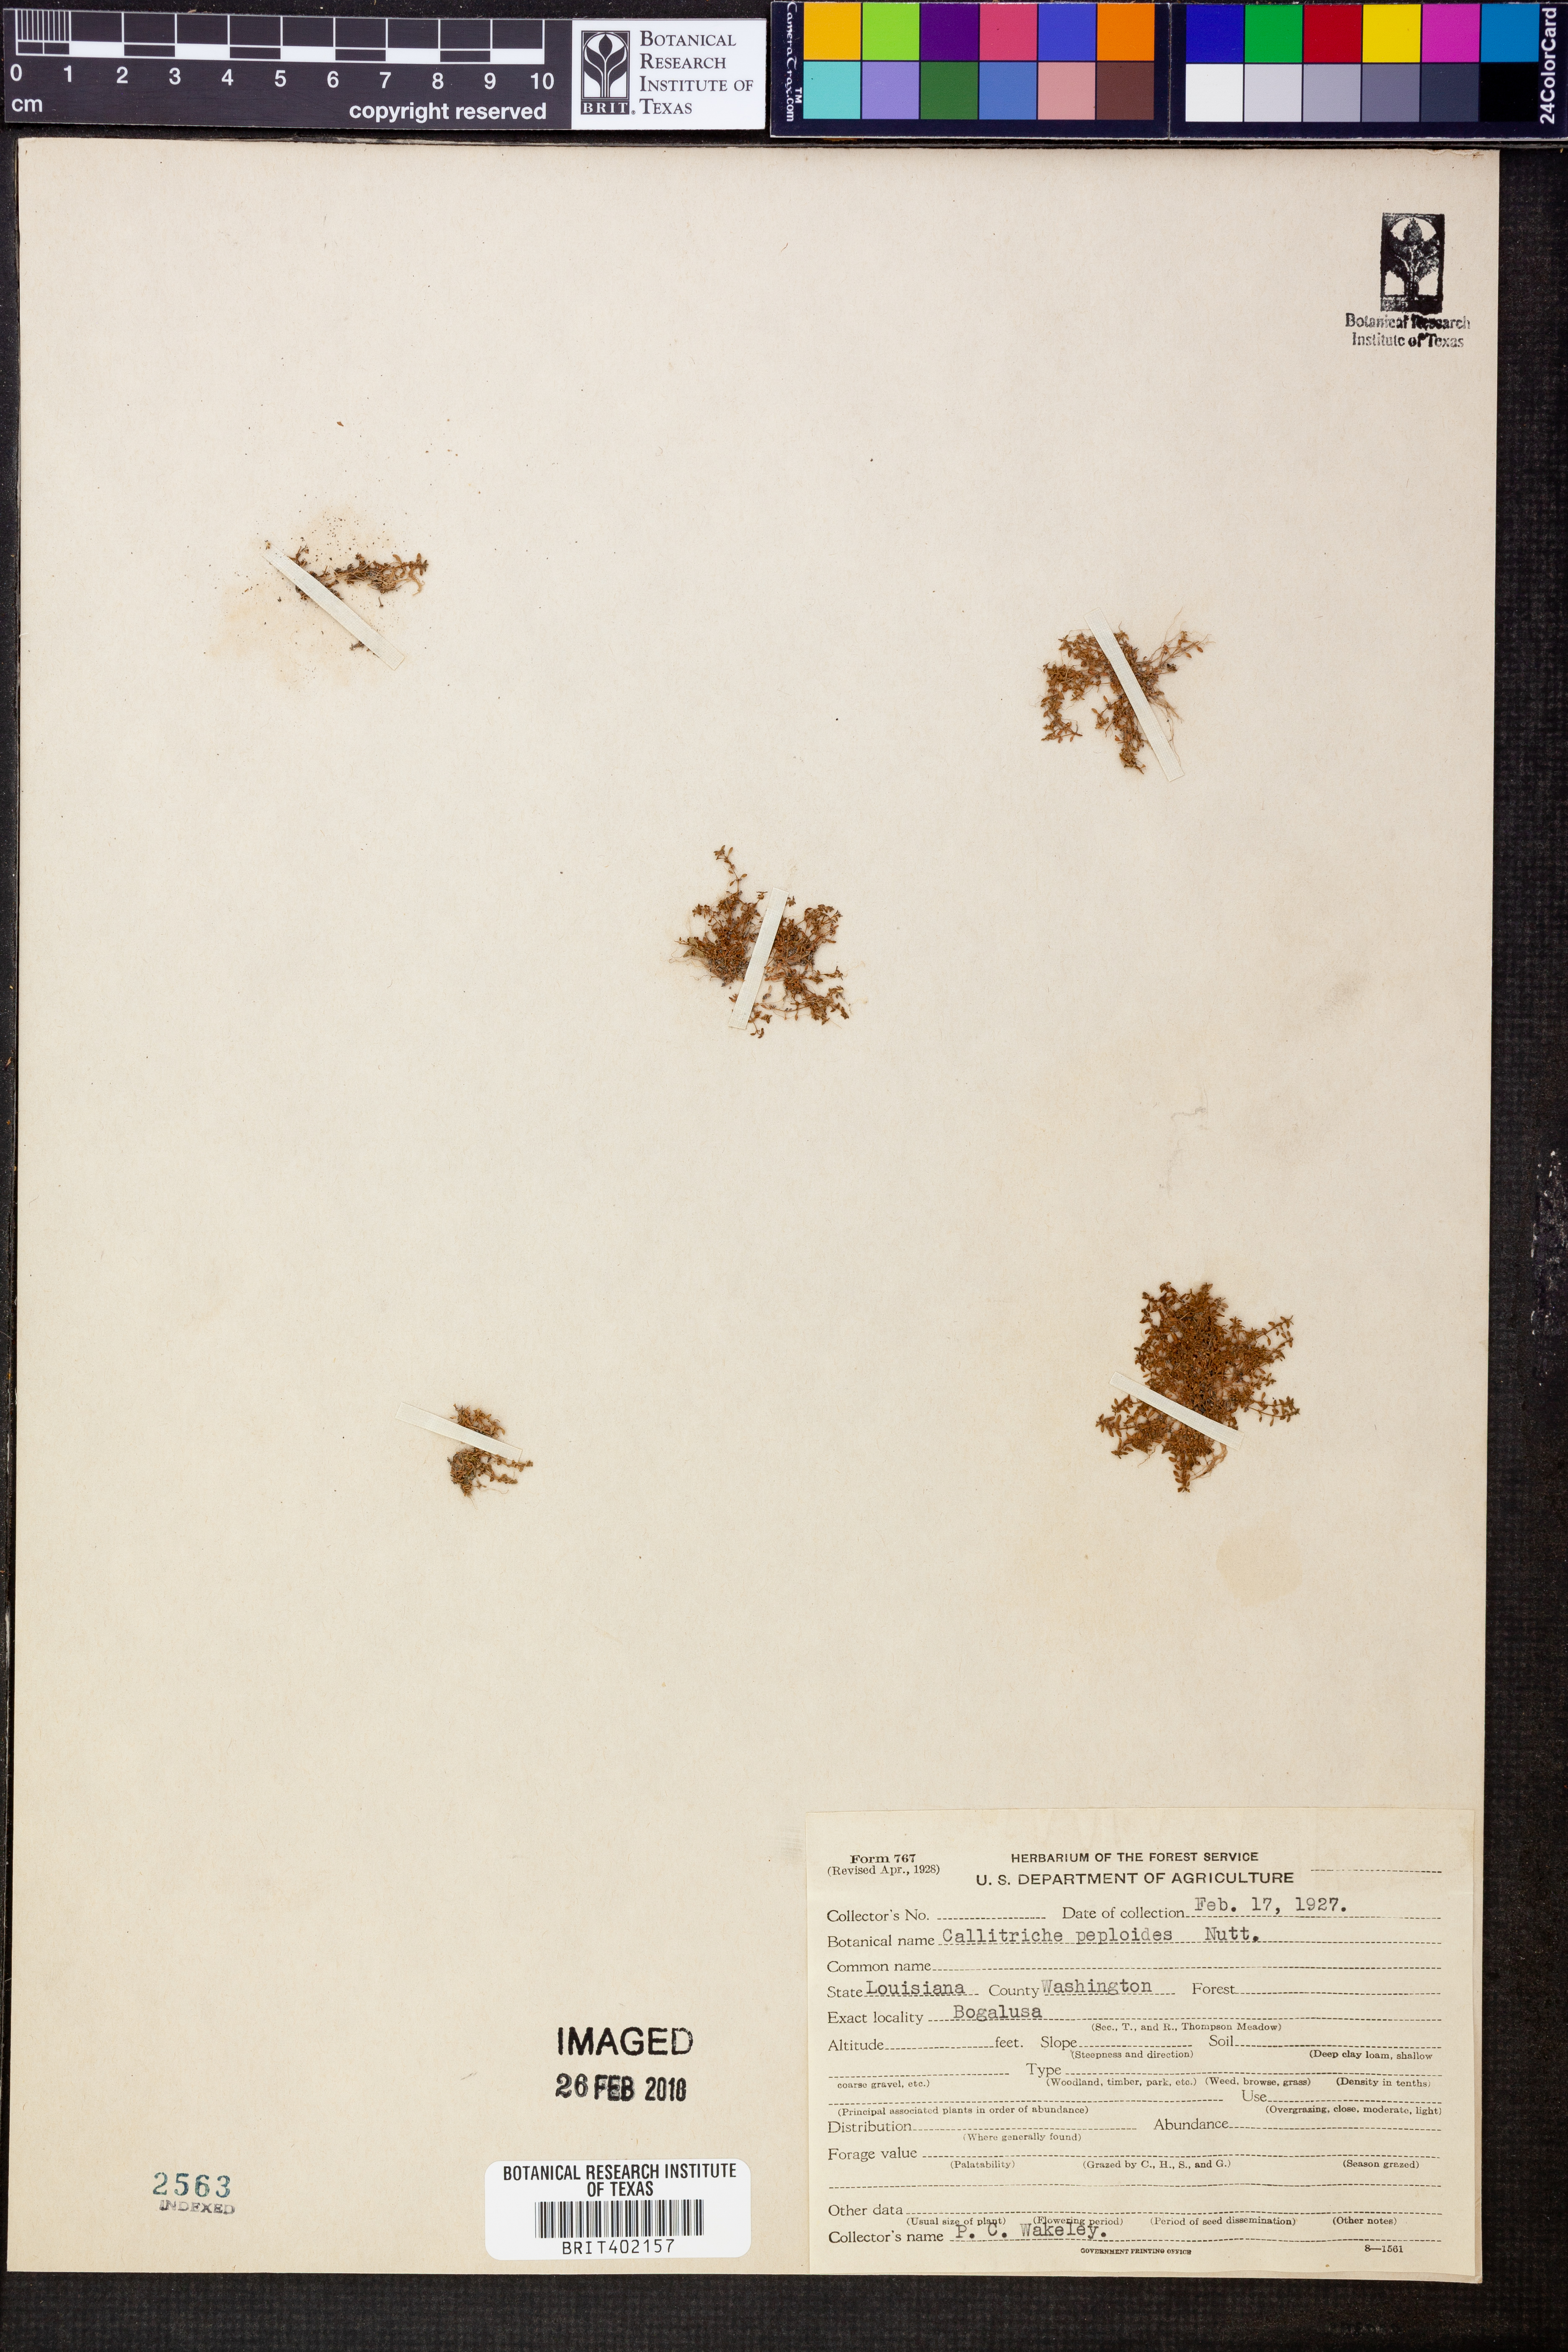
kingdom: Plantae
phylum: Tracheophyta
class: Magnoliopsida
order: Lamiales
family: Plantaginaceae
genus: Callitriche
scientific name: Callitriche peploides
